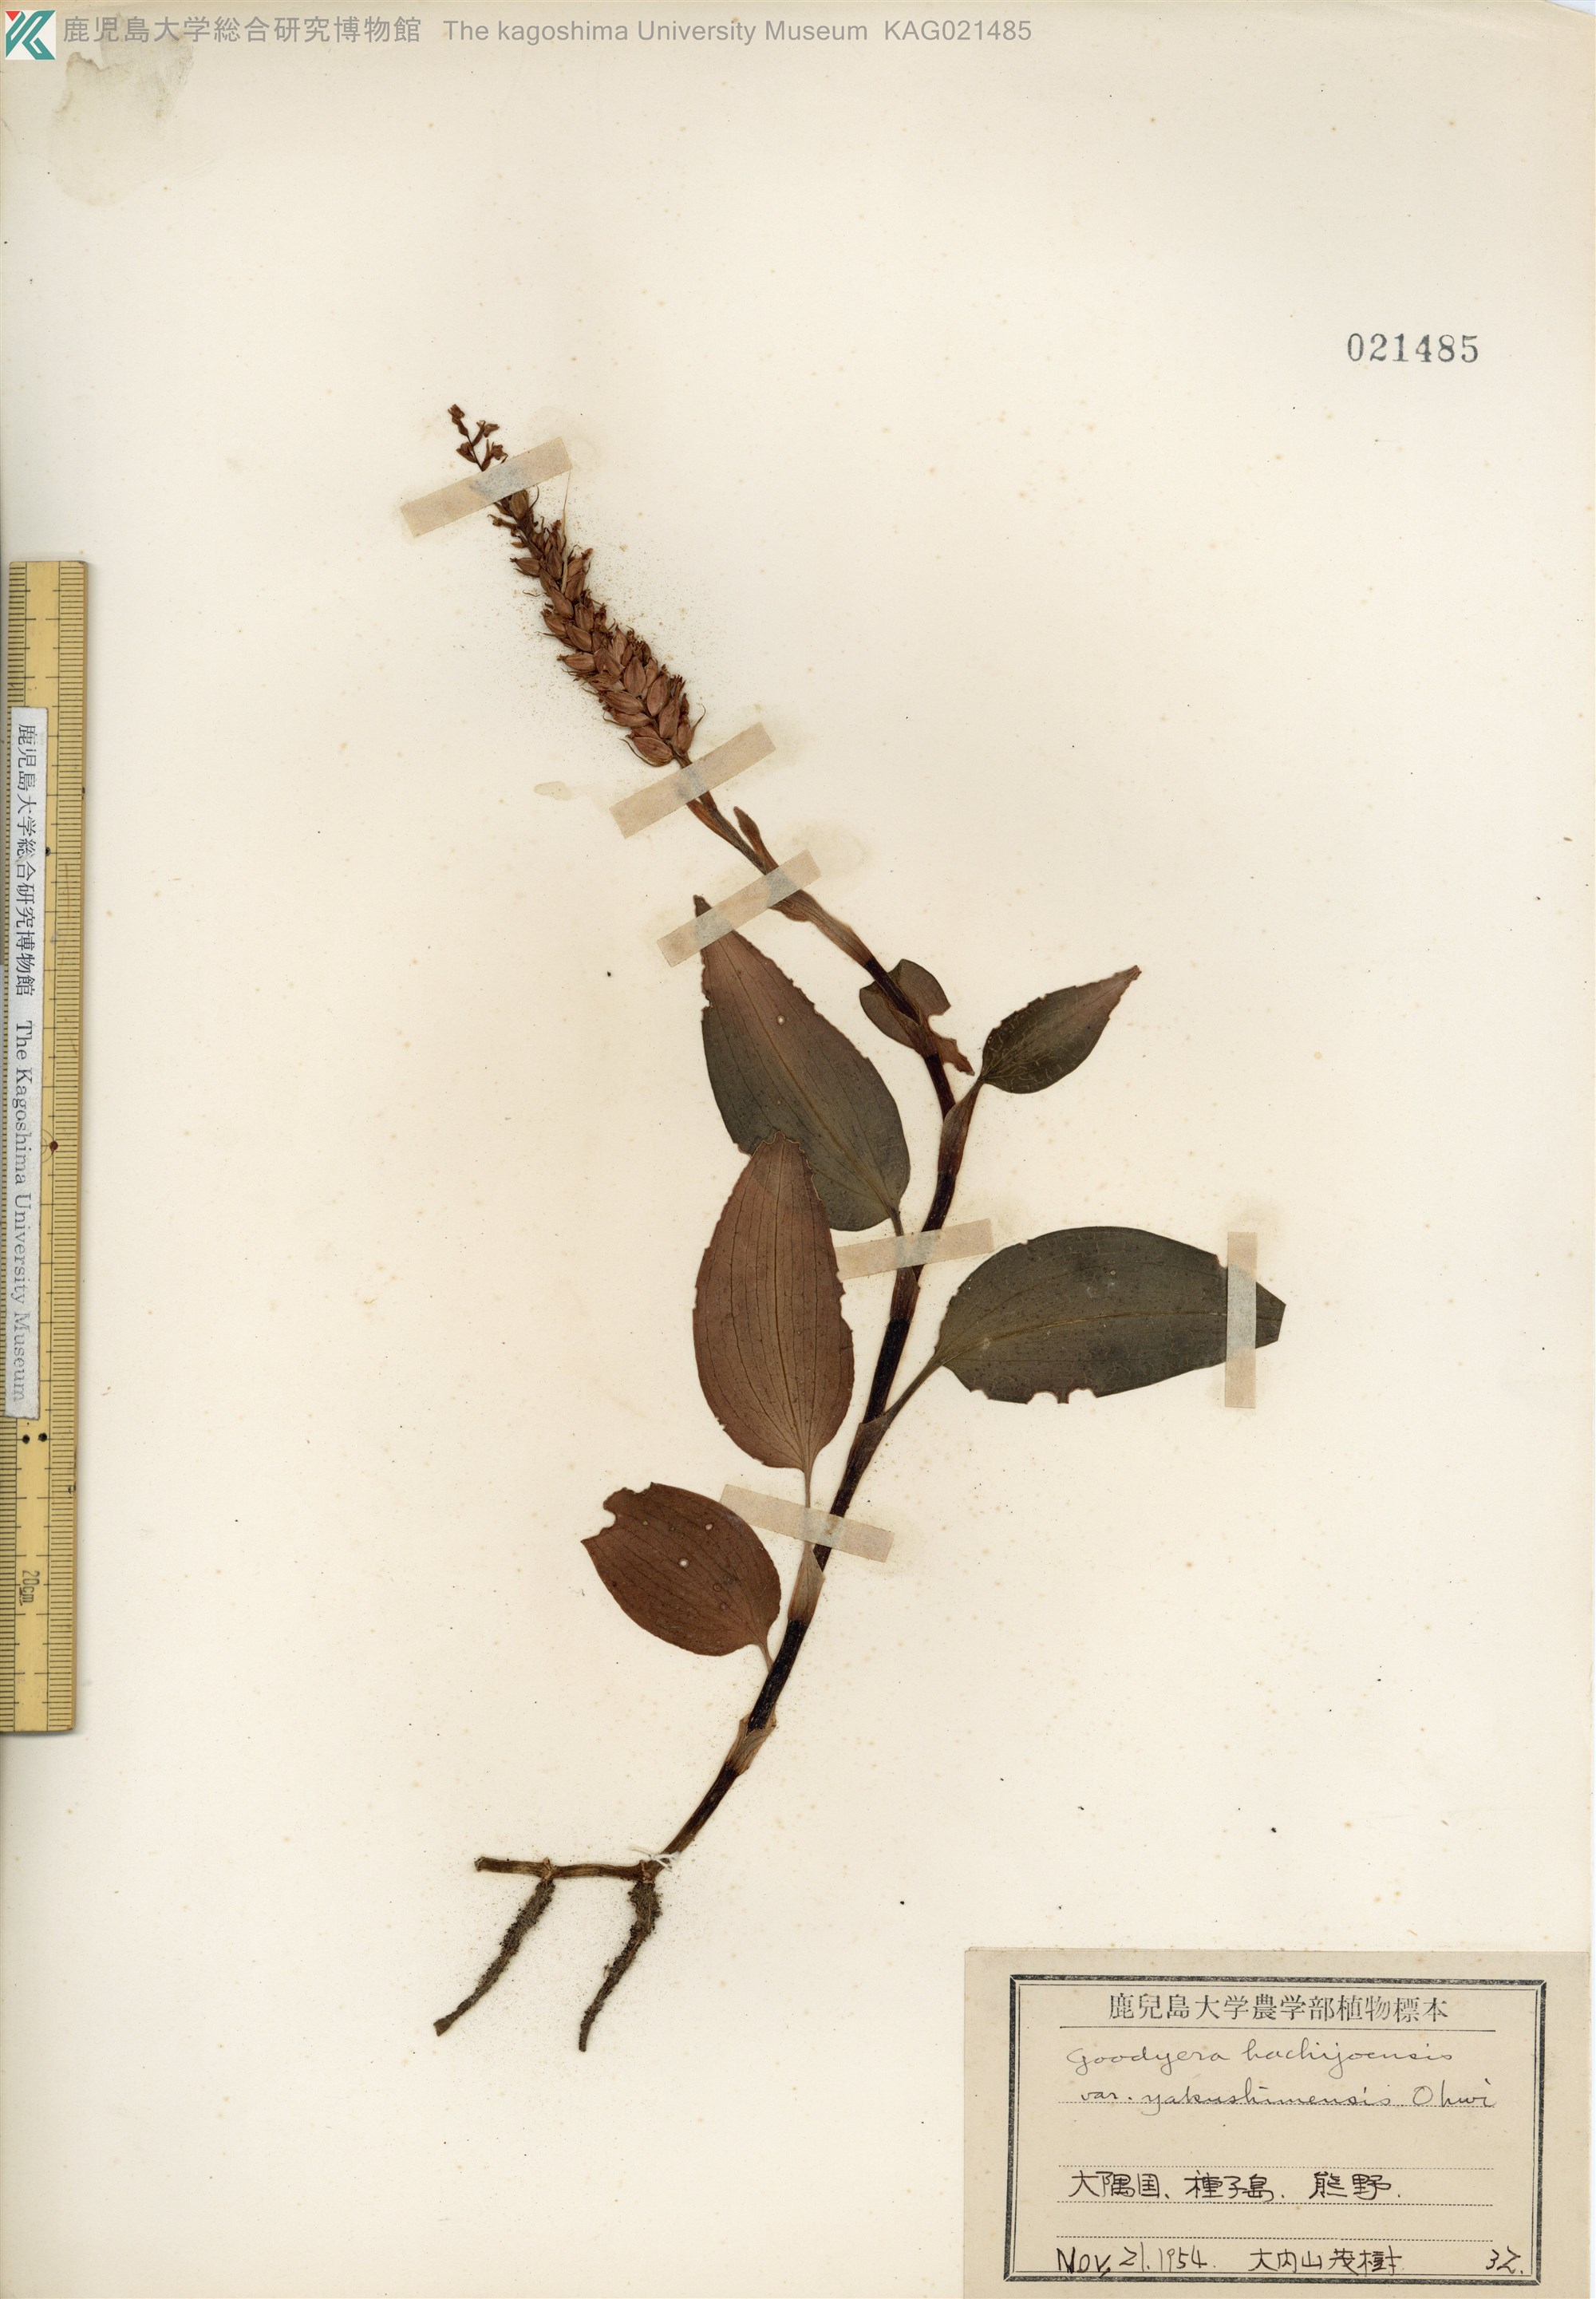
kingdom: Plantae
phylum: Tracheophyta
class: Liliopsida
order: Asparagales
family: Orchidaceae
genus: Goodyera
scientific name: Goodyera hachijoensis
